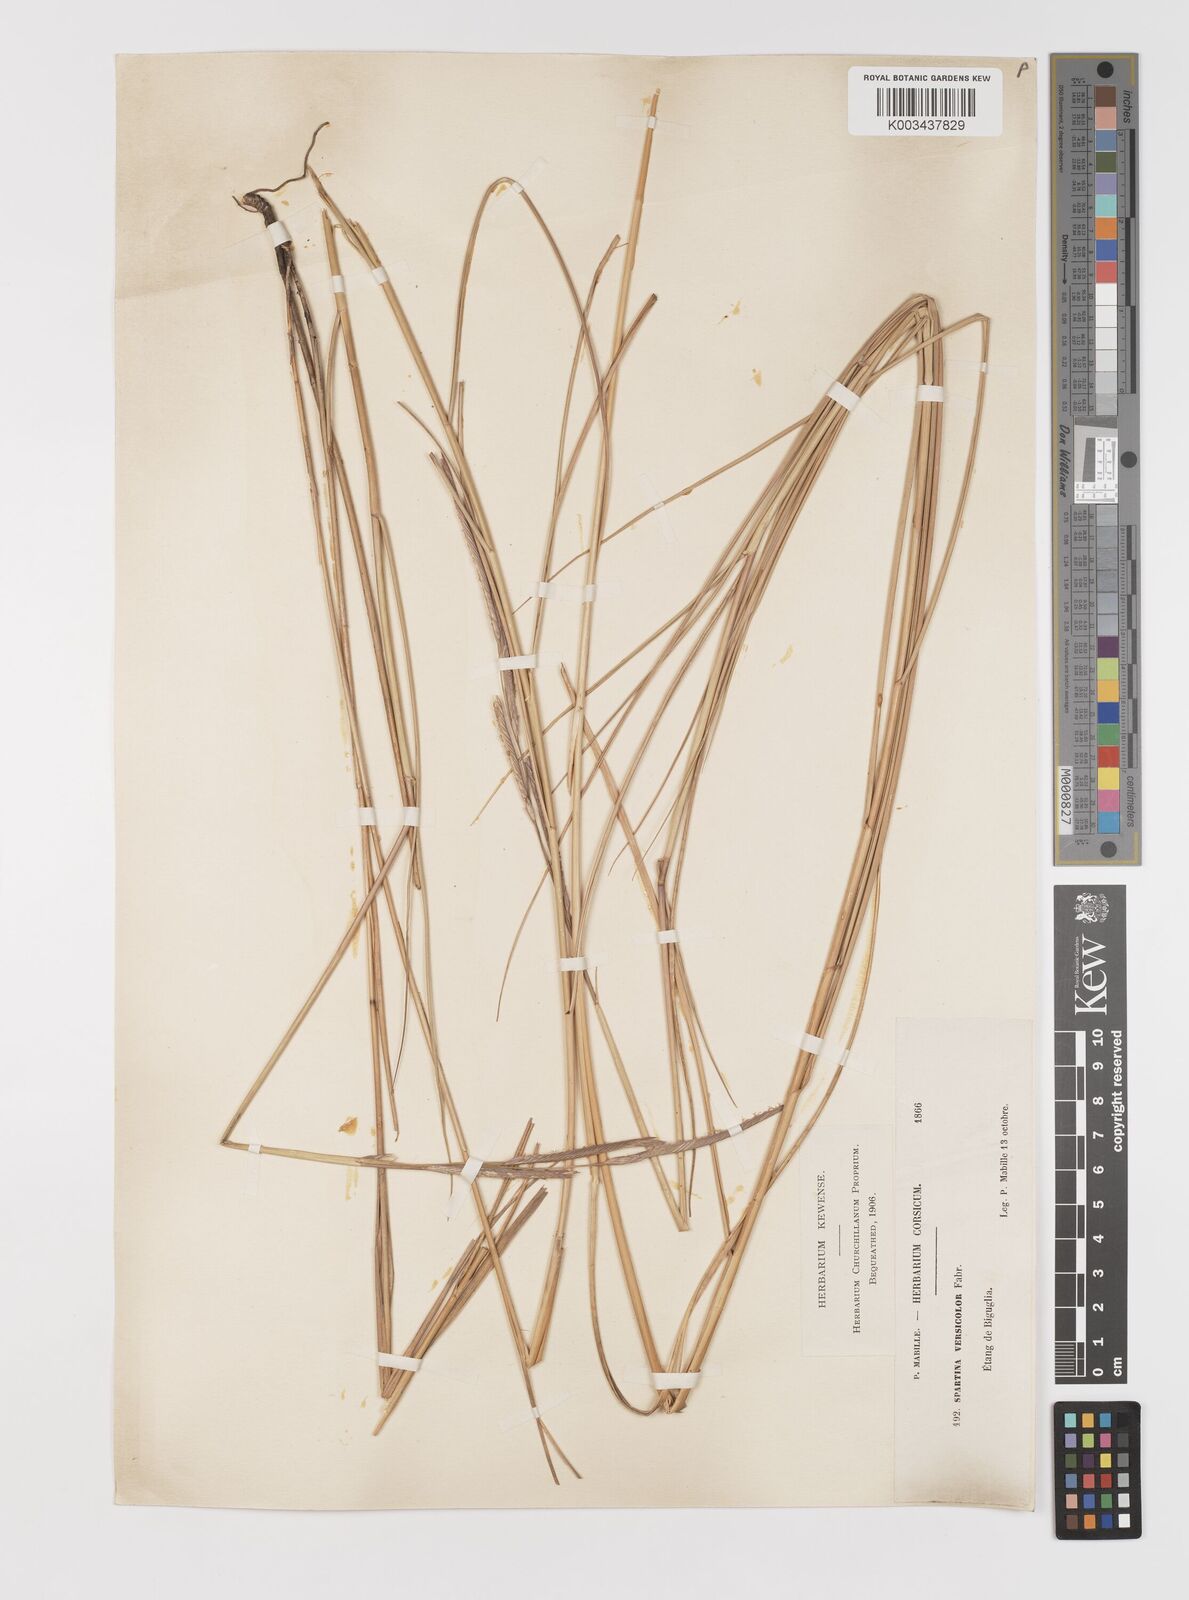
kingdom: Plantae
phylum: Tracheophyta
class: Liliopsida
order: Poales
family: Poaceae
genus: Sporobolus
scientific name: Sporobolus versicolor
